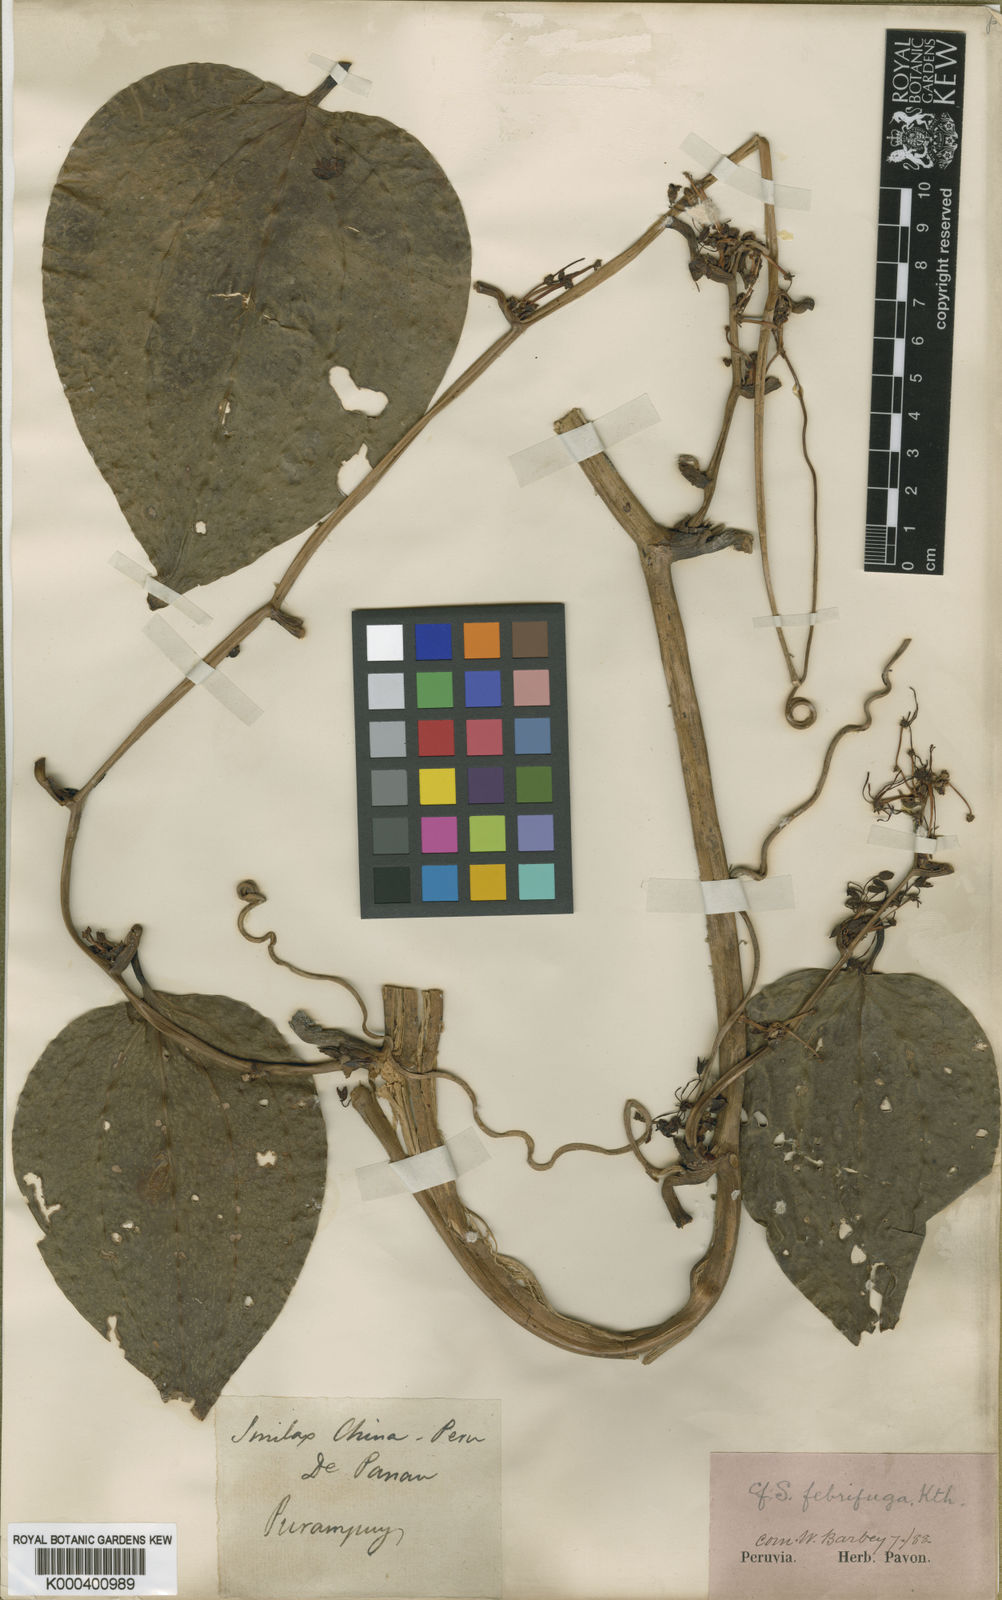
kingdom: Plantae
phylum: Tracheophyta
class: Liliopsida
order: Liliales
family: Smilacaceae
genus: Smilax
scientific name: Smilax purhampuy
